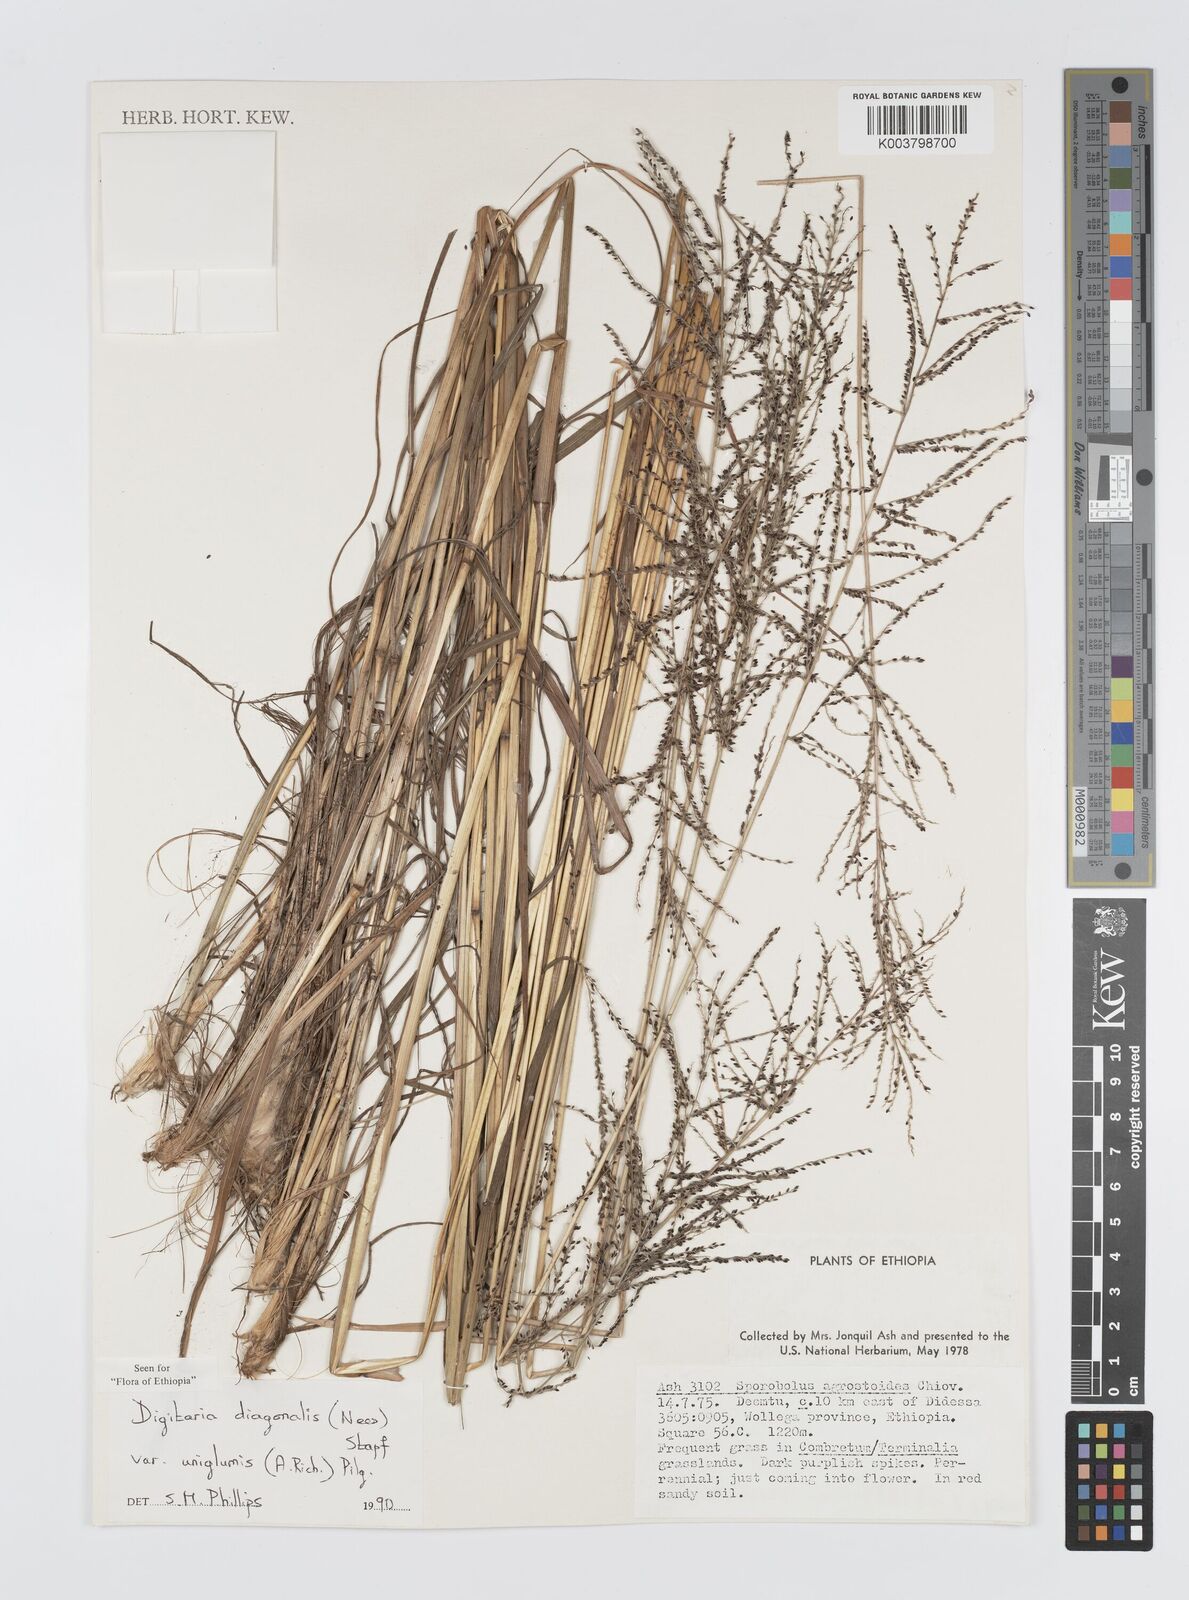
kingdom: Plantae
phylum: Tracheophyta
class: Liliopsida
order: Poales
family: Poaceae
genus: Digitaria
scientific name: Digitaria diagonalis
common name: Brown-seed finger grass
